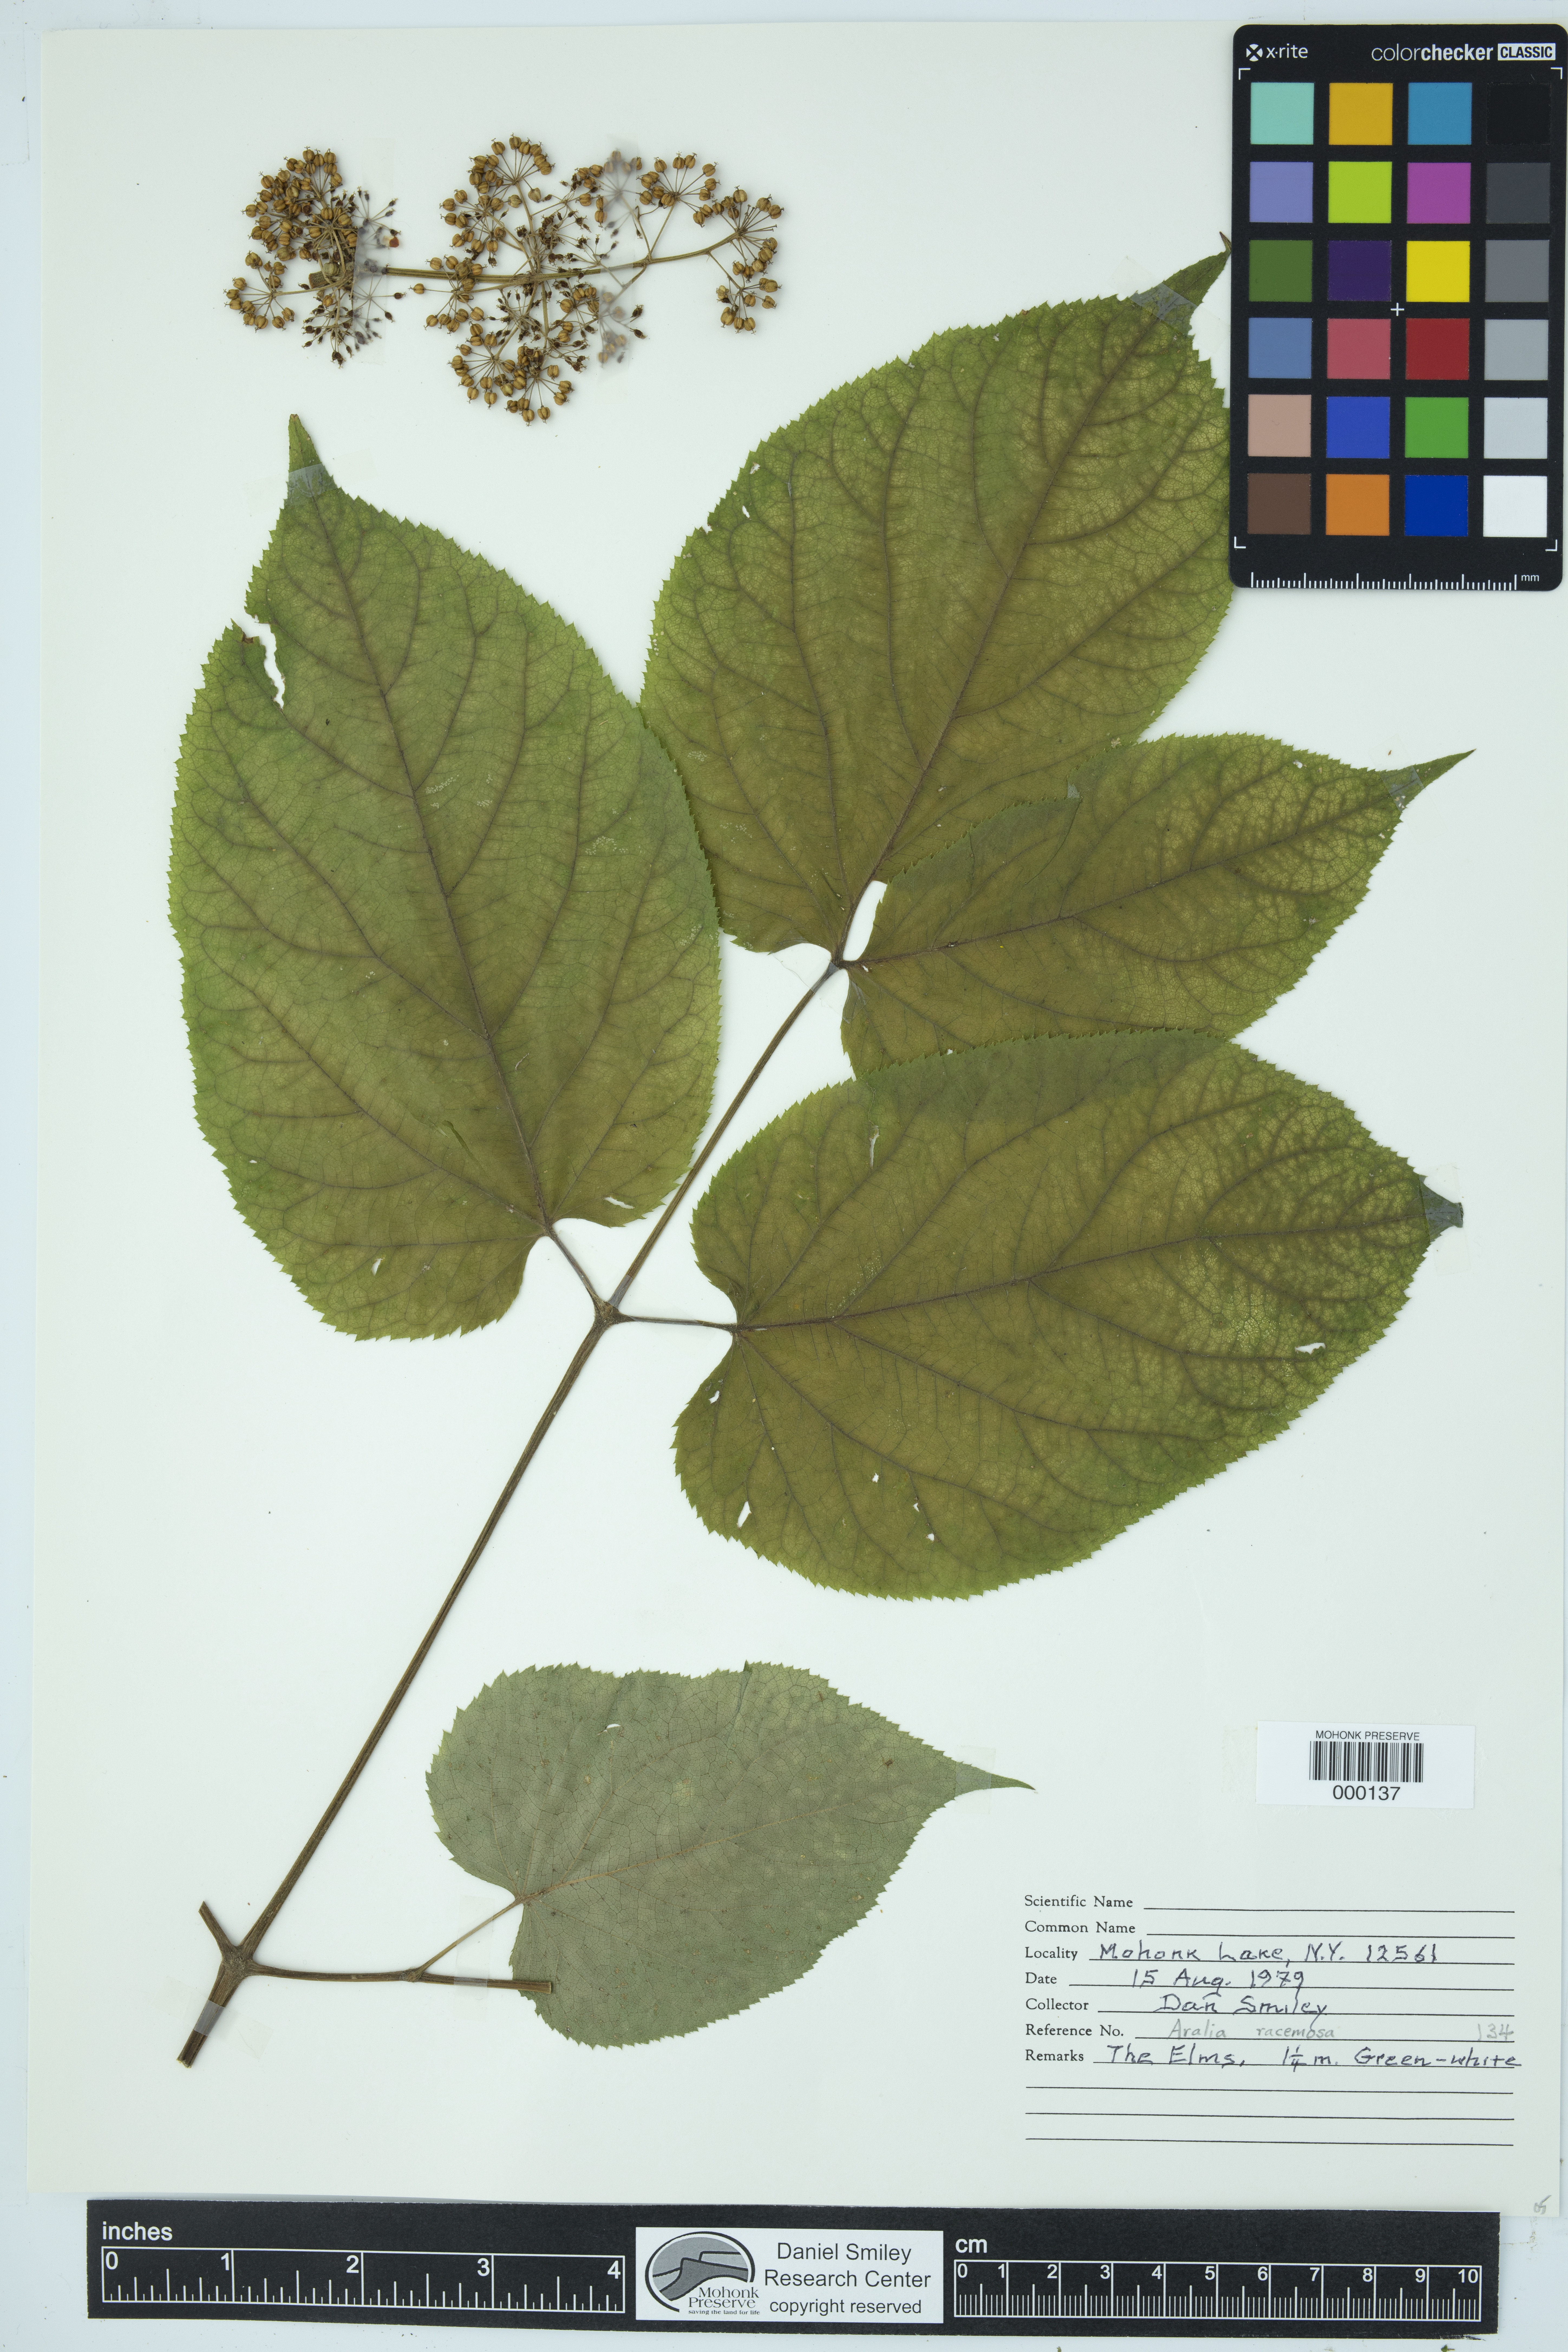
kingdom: Plantae
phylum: Tracheophyta
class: Magnoliopsida
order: Apiales
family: Araliaceae
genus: Aralia
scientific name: Aralia racemosa
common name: American-spikenard
